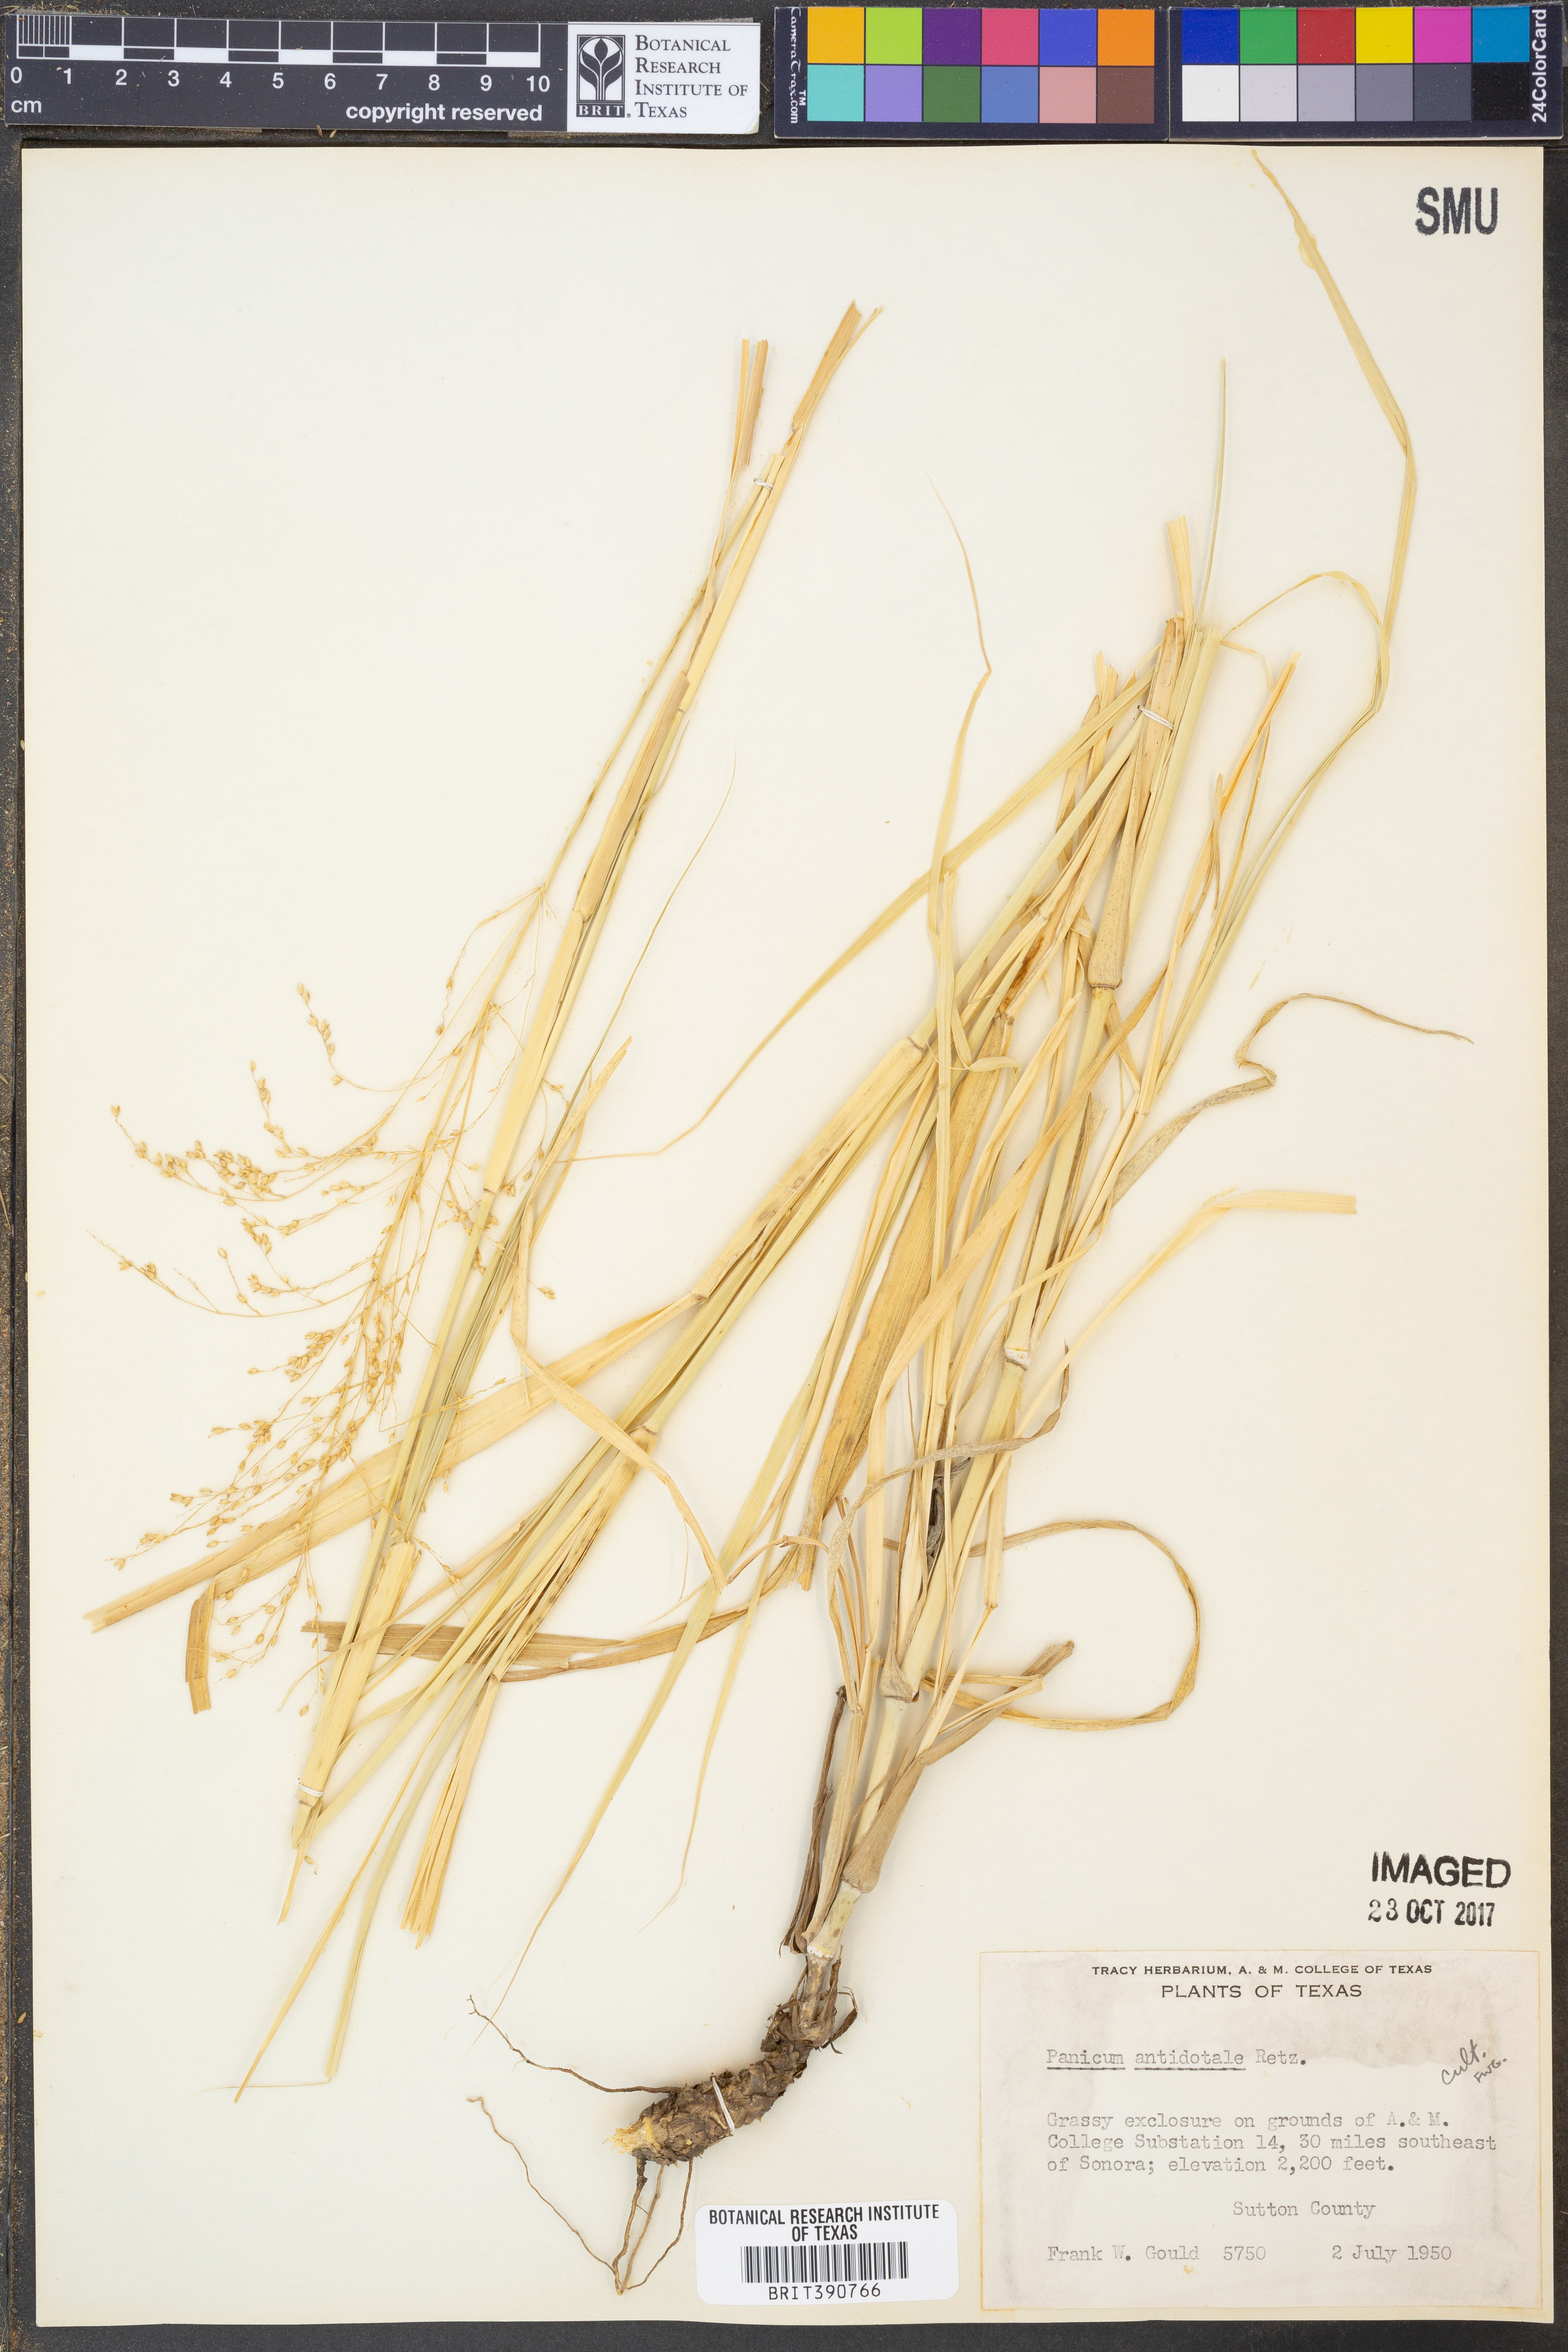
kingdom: Plantae
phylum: Tracheophyta
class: Liliopsida
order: Poales
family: Poaceae
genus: Panicum
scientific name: Panicum antidotale
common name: Blue panicum
